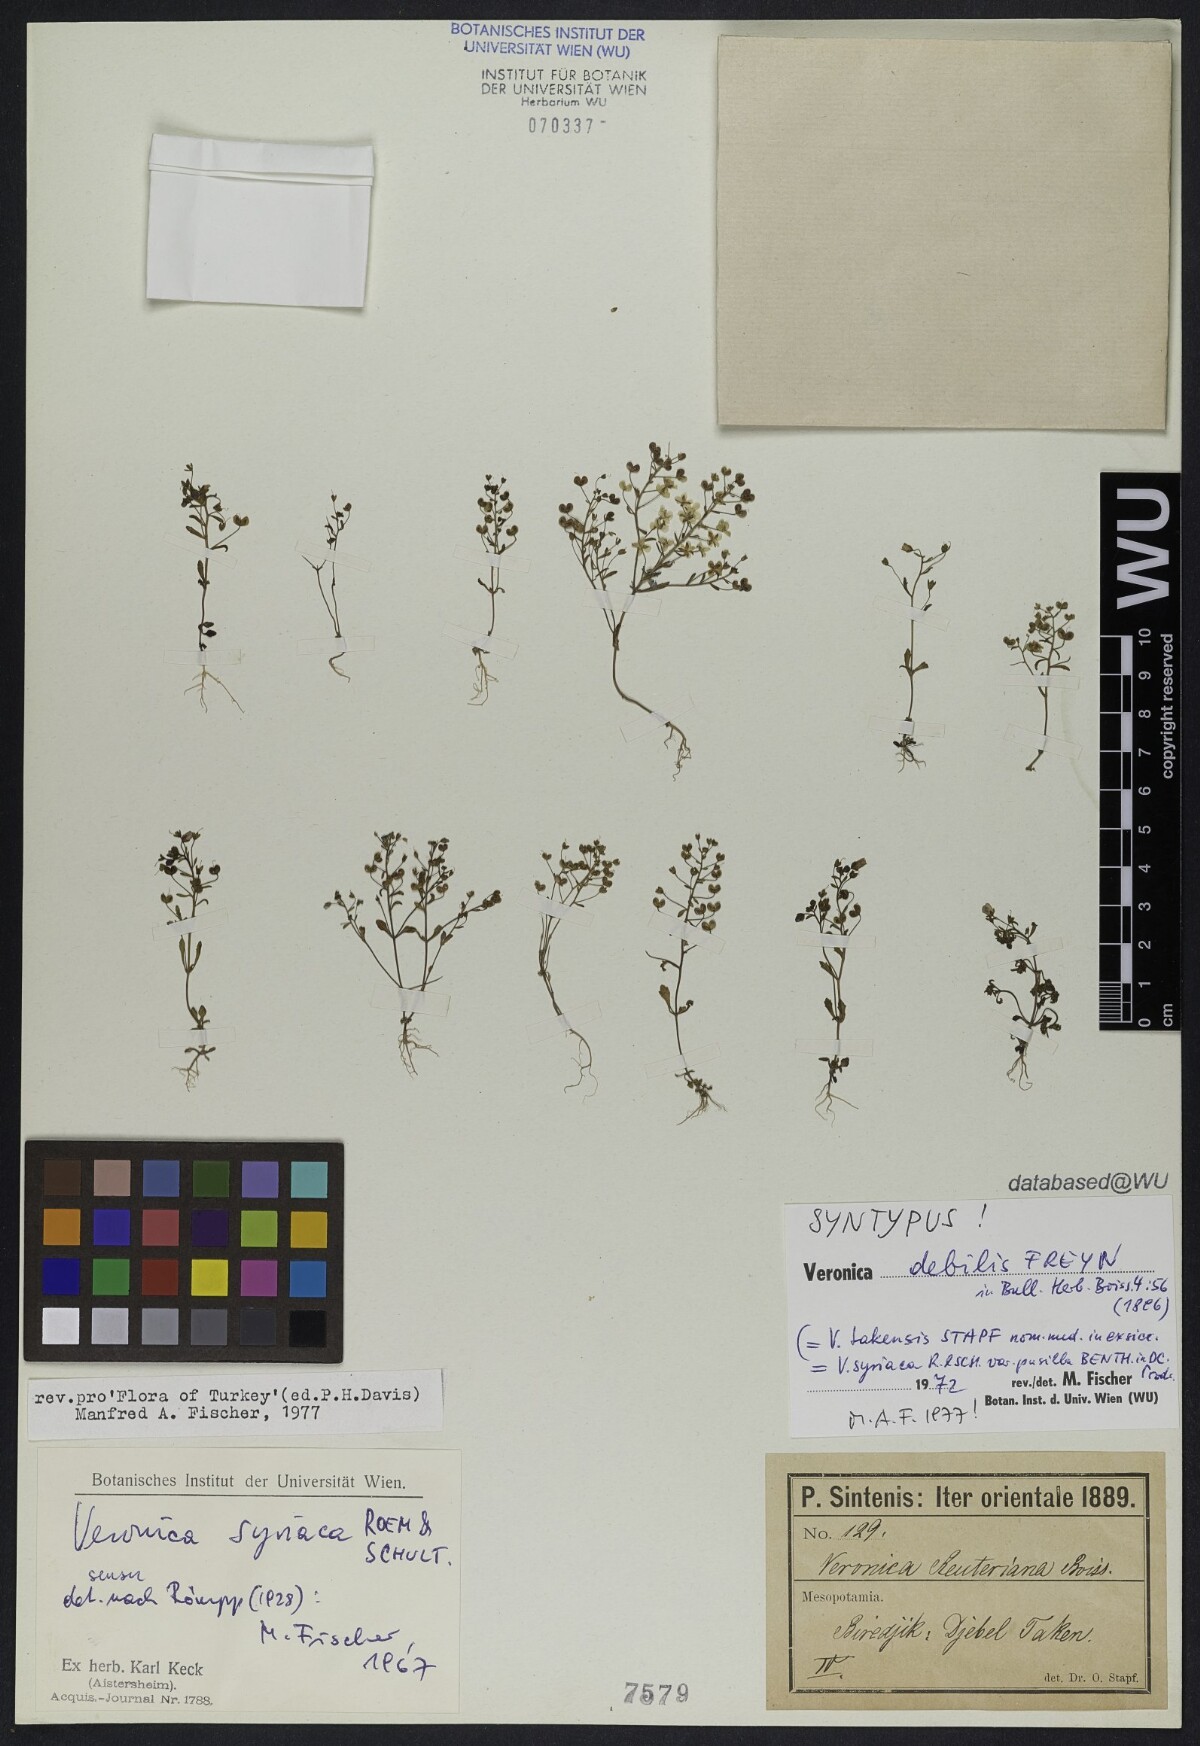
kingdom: Plantae
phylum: Tracheophyta
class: Magnoliopsida
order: Lamiales
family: Plantaginaceae
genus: Veronica
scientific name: Veronica debilis
